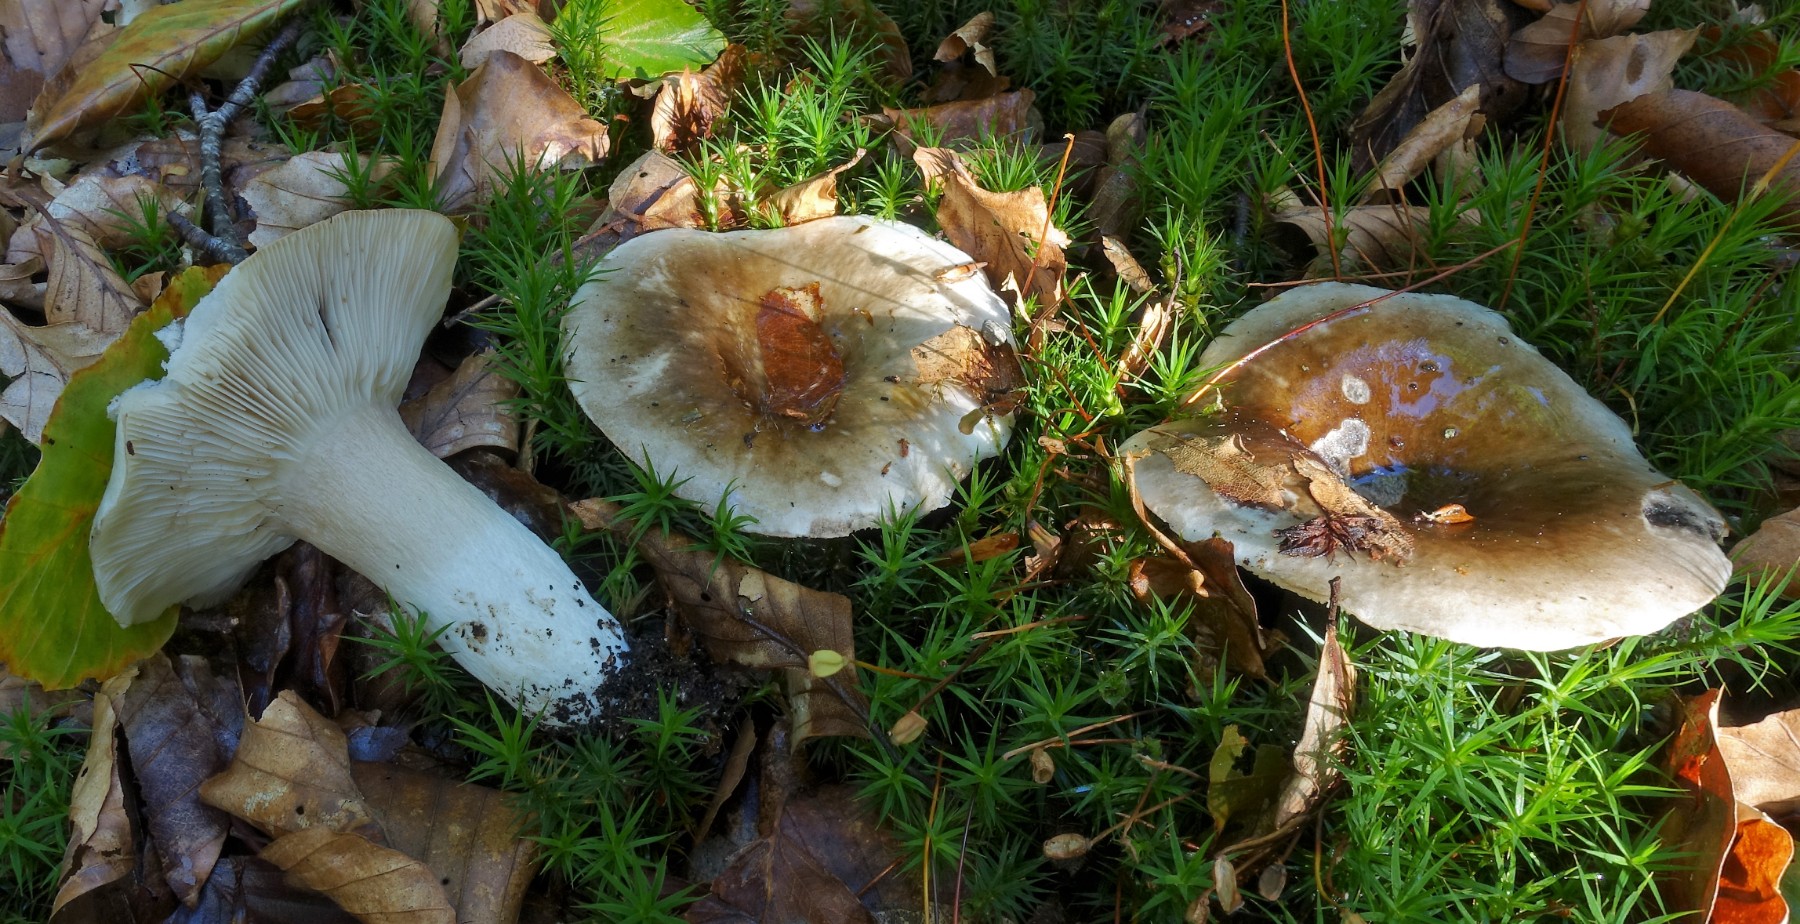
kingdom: Fungi
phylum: Basidiomycota
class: Agaricomycetes
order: Russulales
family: Russulaceae
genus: Russula
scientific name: Russula densifolia
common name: tætbladet skørhat
